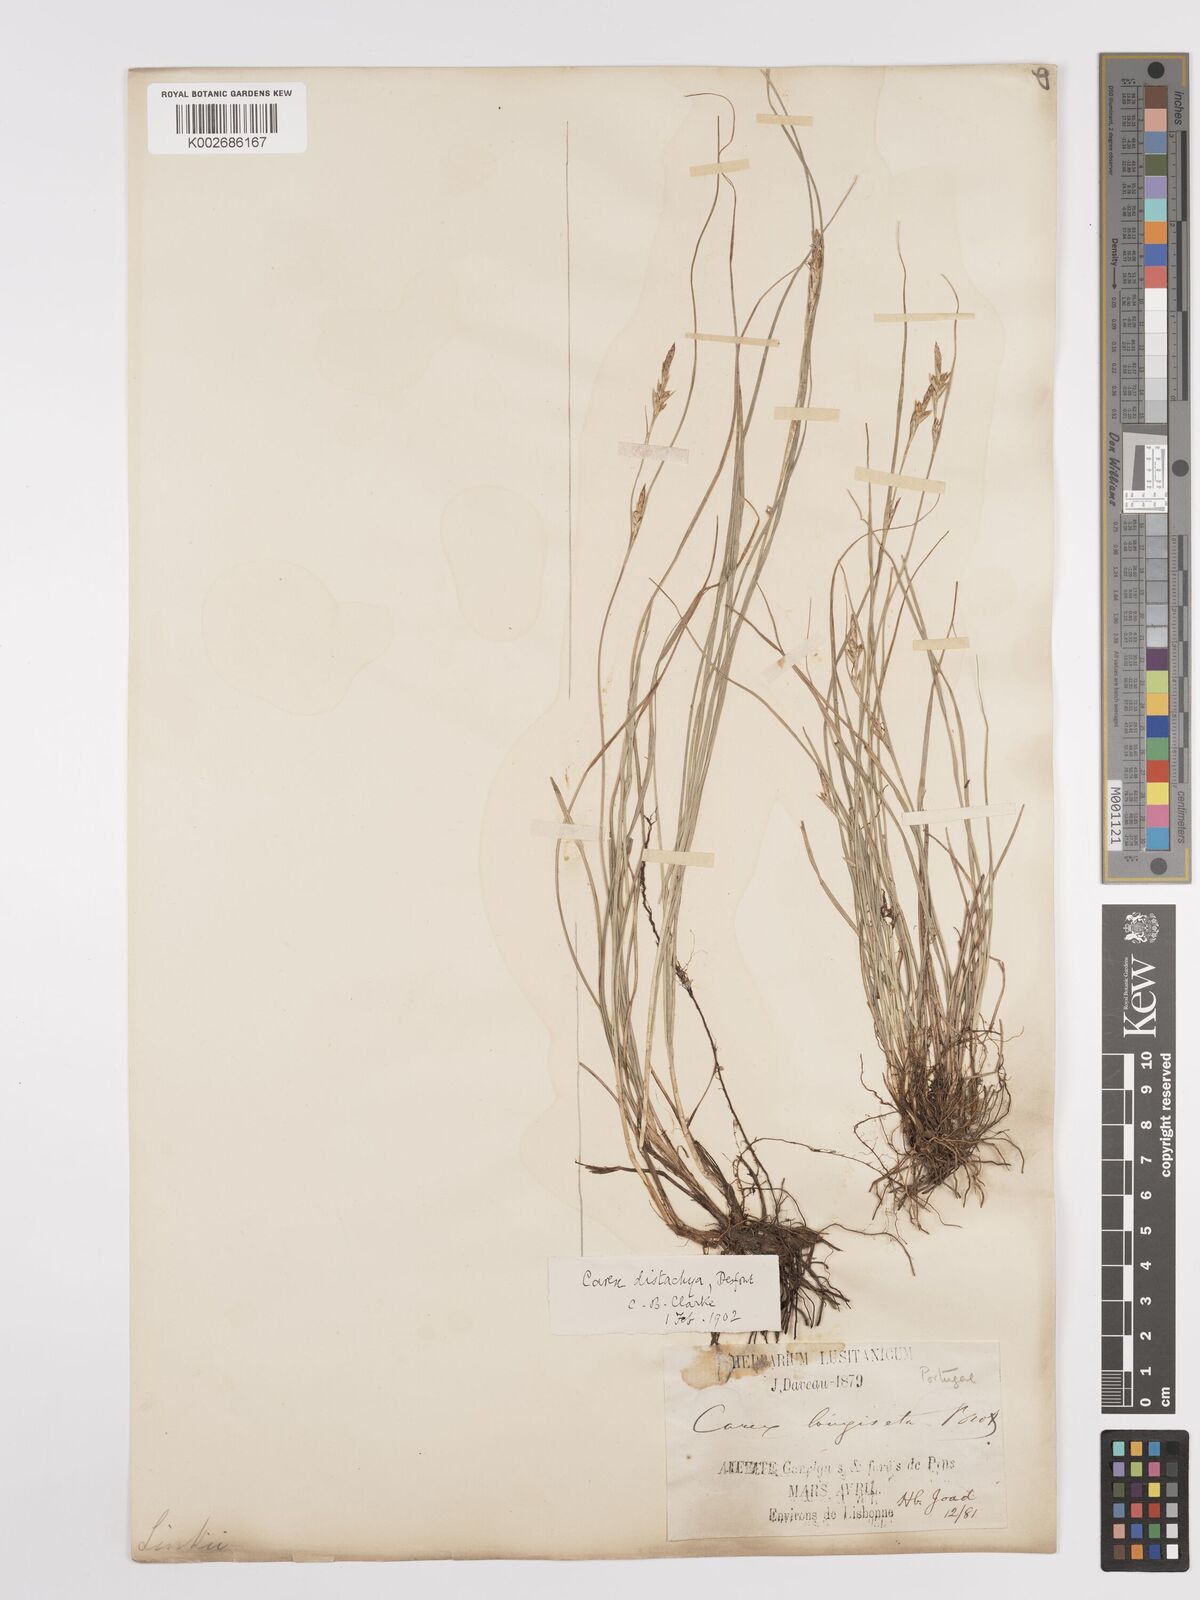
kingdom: Plantae
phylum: Tracheophyta
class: Liliopsida
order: Poales
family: Cyperaceae
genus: Carex
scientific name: Carex distachya
